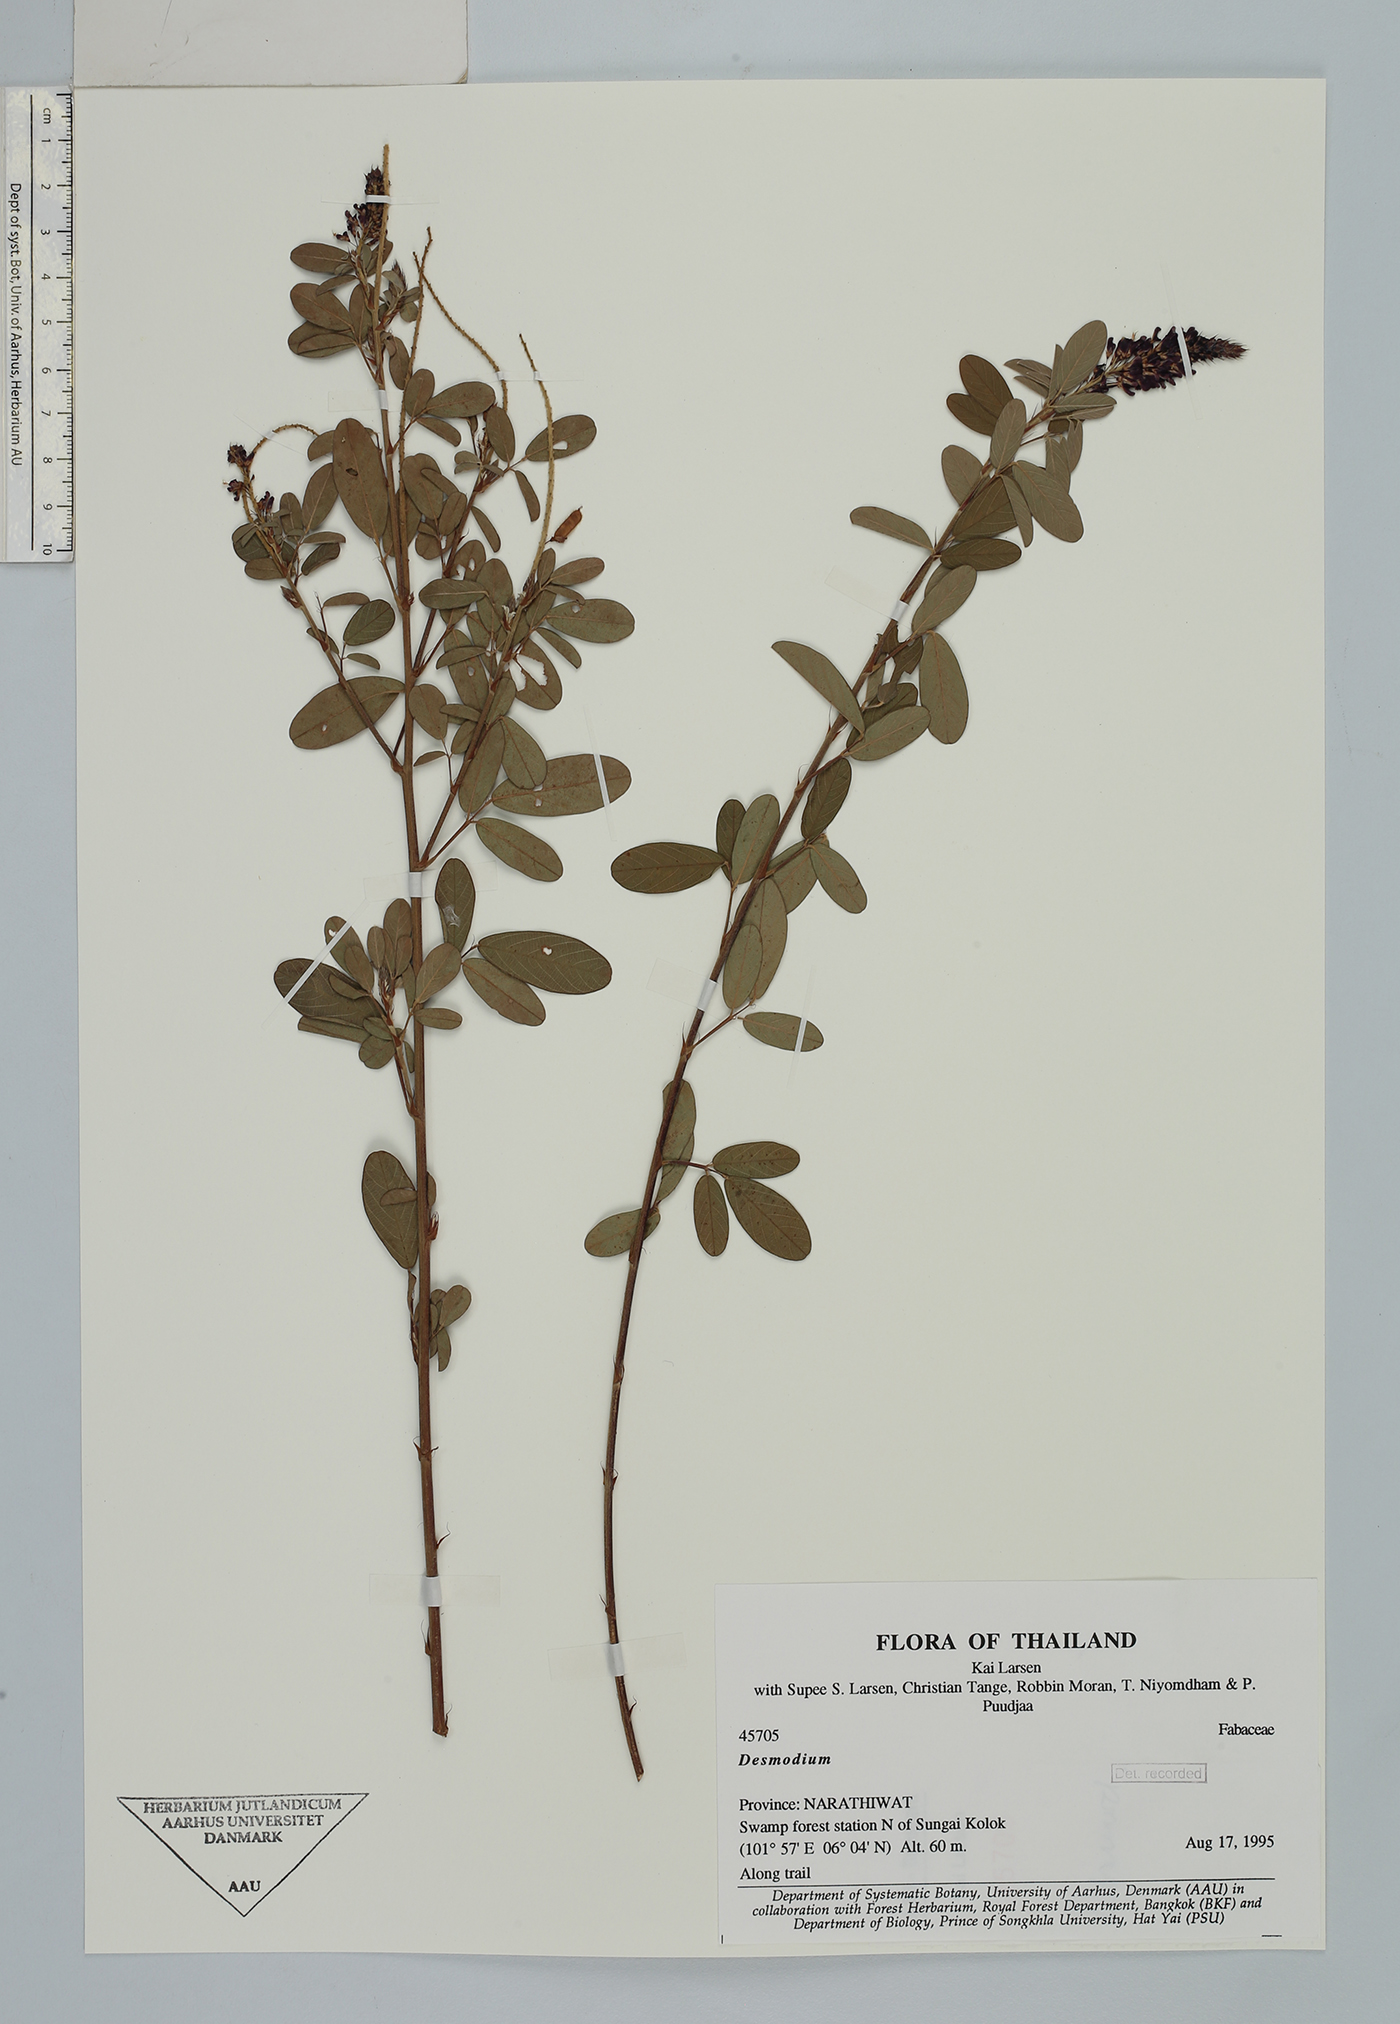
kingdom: Plantae
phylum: Tracheophyta
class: Magnoliopsida
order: Fabales
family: Fabaceae
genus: Grona
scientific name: Grona heterocarpos
